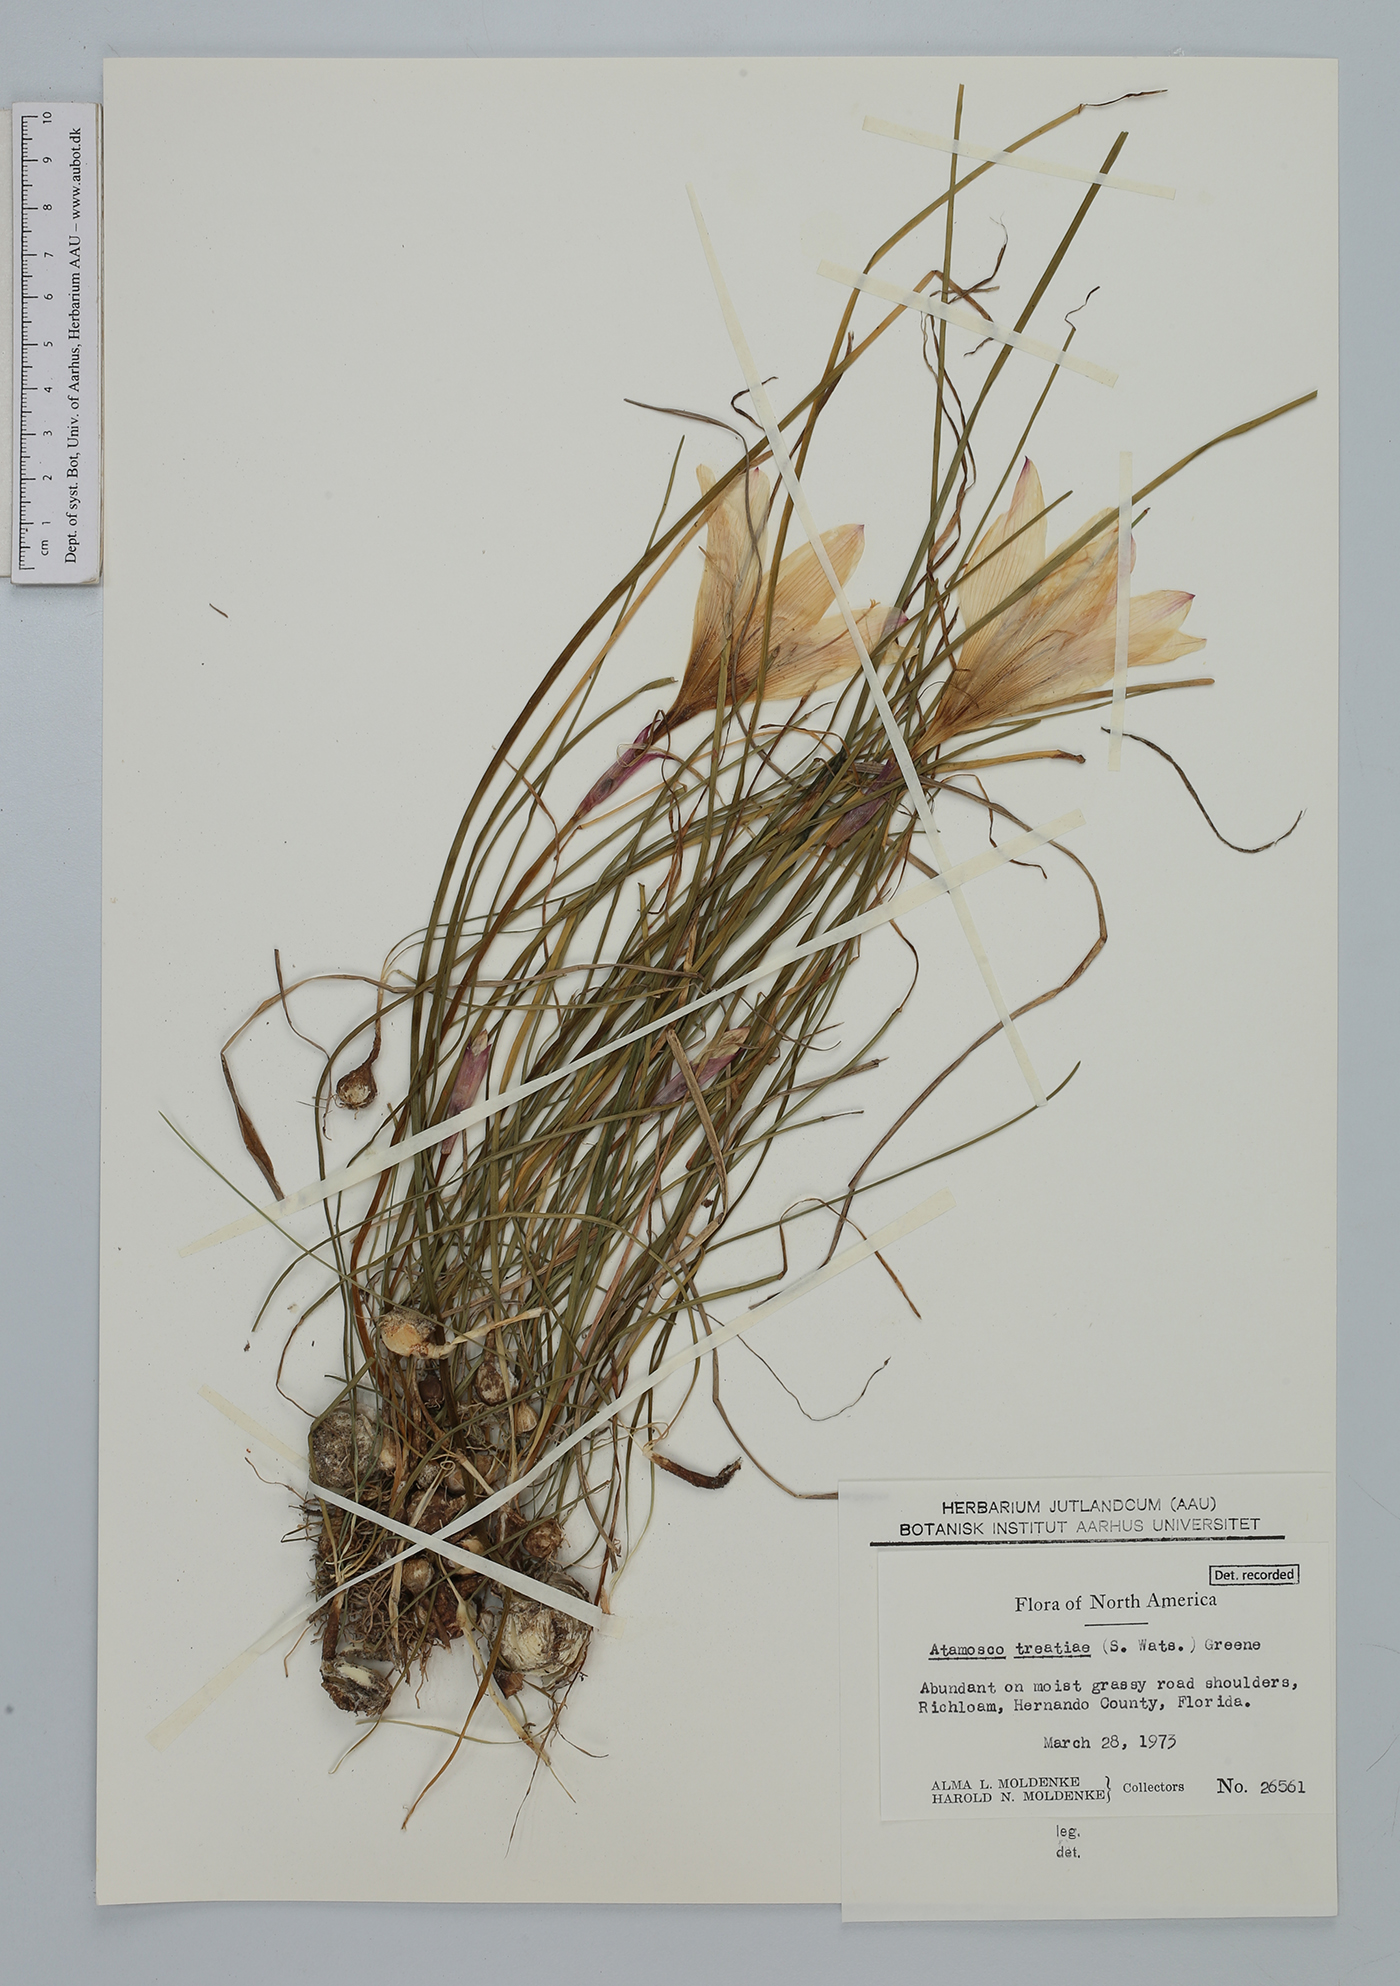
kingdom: Plantae
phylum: Tracheophyta
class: Liliopsida
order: Asparagales
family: Amaryllidaceae
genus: Zephyranthes
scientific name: Zephyranthes treatiae
